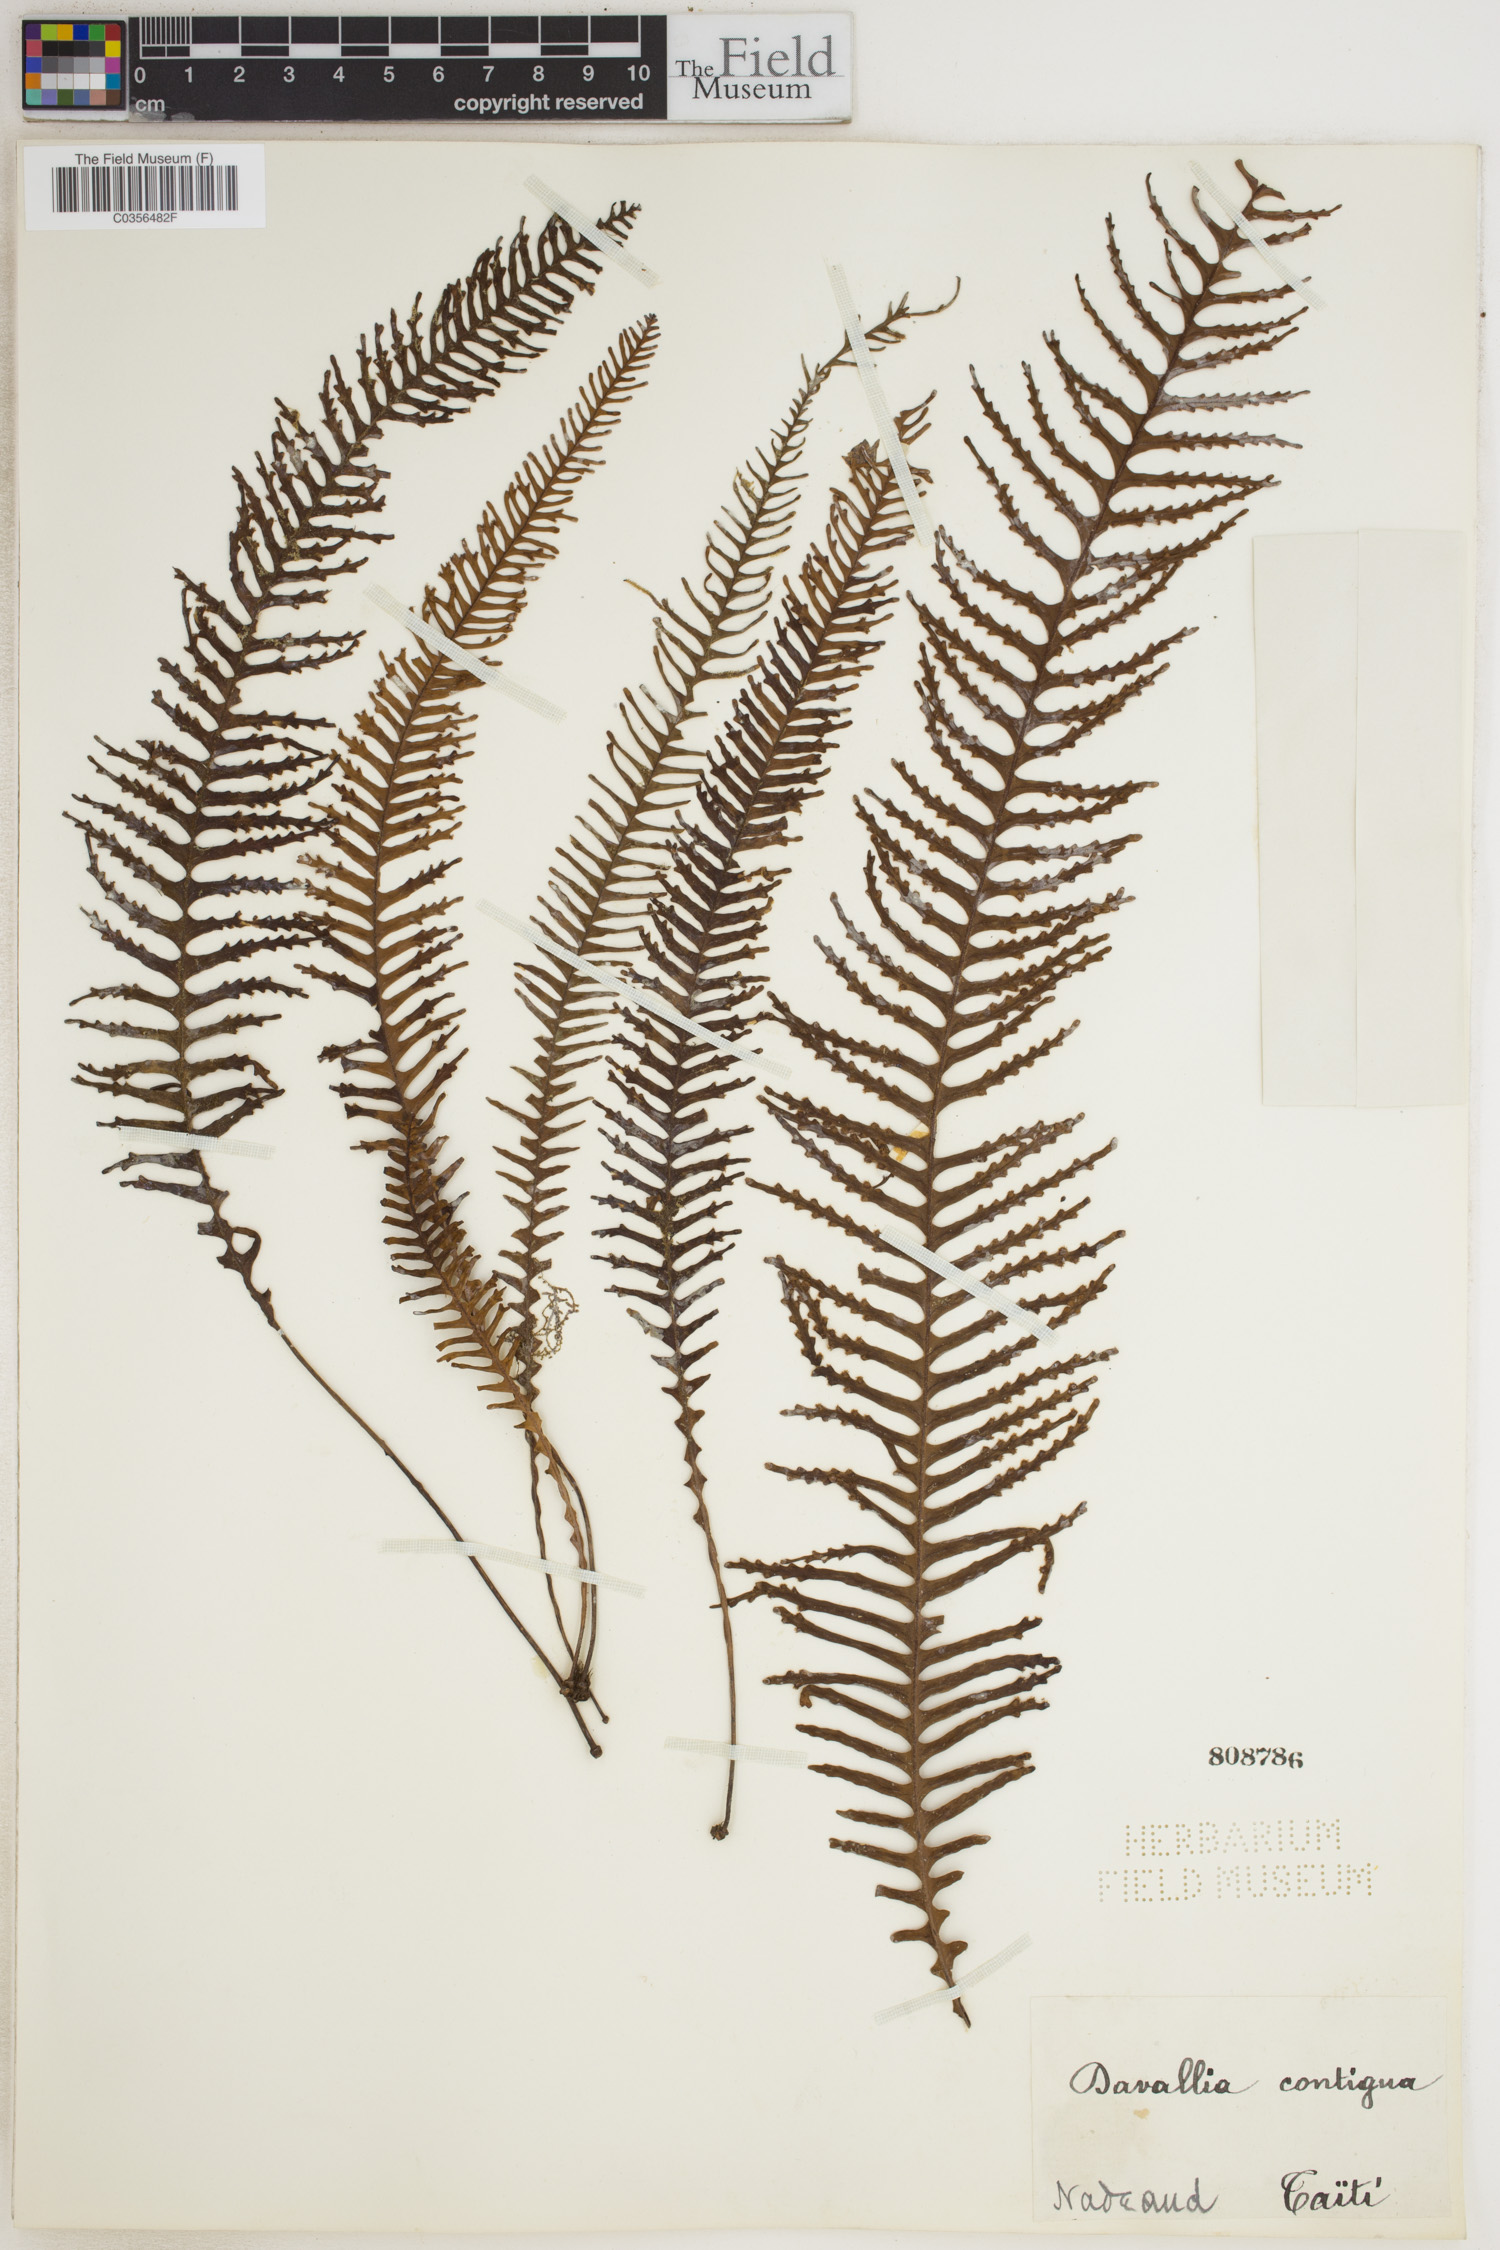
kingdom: Plantae
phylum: Tracheophyta
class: Polypodiopsida
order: Polypodiales
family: Polypodiaceae
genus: Prosaptia
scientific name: Prosaptia contigua
